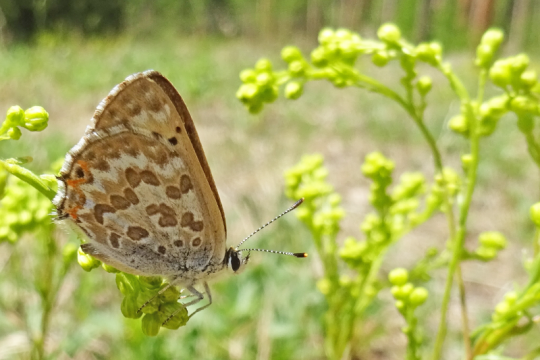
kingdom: Animalia
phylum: Arthropoda
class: Insecta
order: Lepidoptera
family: Lycaenidae
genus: Lycaena
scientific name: Lycaena editha
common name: Edith's Copper
